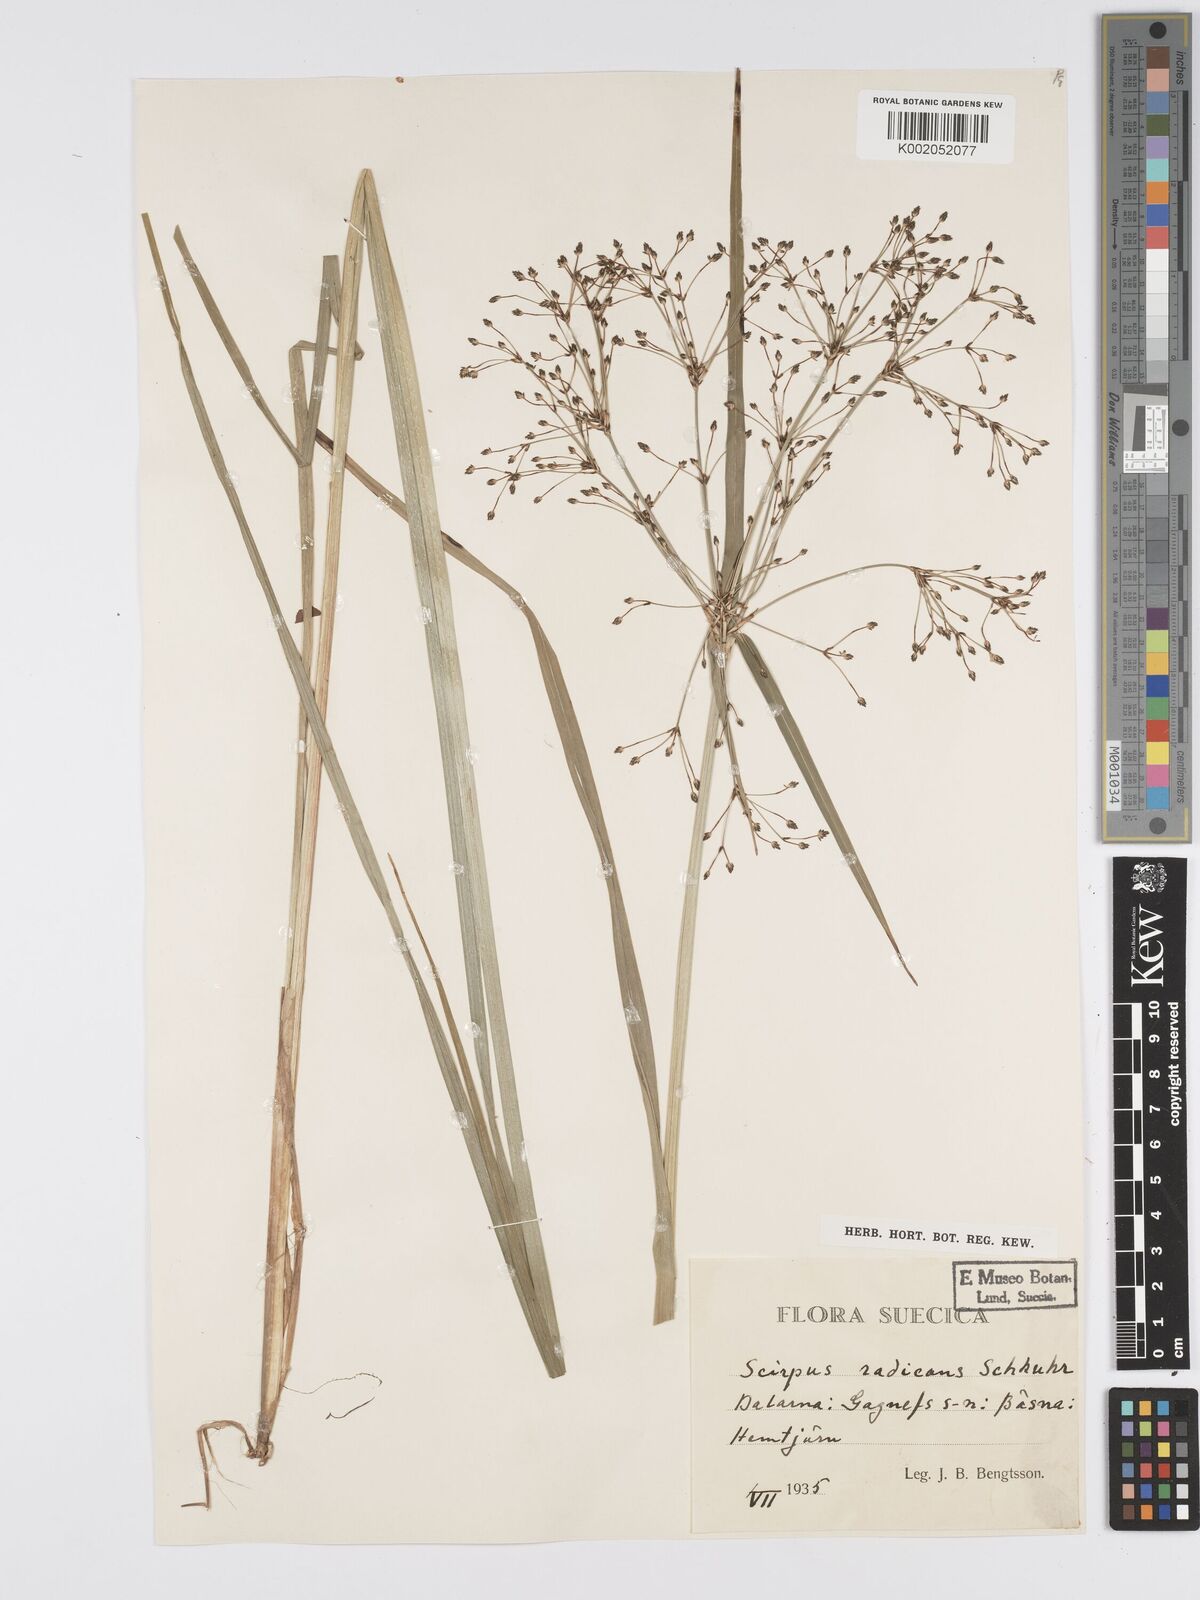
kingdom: Plantae
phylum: Tracheophyta
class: Liliopsida
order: Poales
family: Cyperaceae
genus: Scirpus
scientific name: Scirpus radicans
